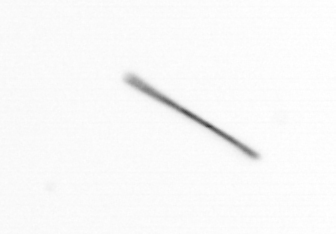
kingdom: Chromista
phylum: Ochrophyta
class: Bacillariophyceae
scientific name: Bacillariophyceae
